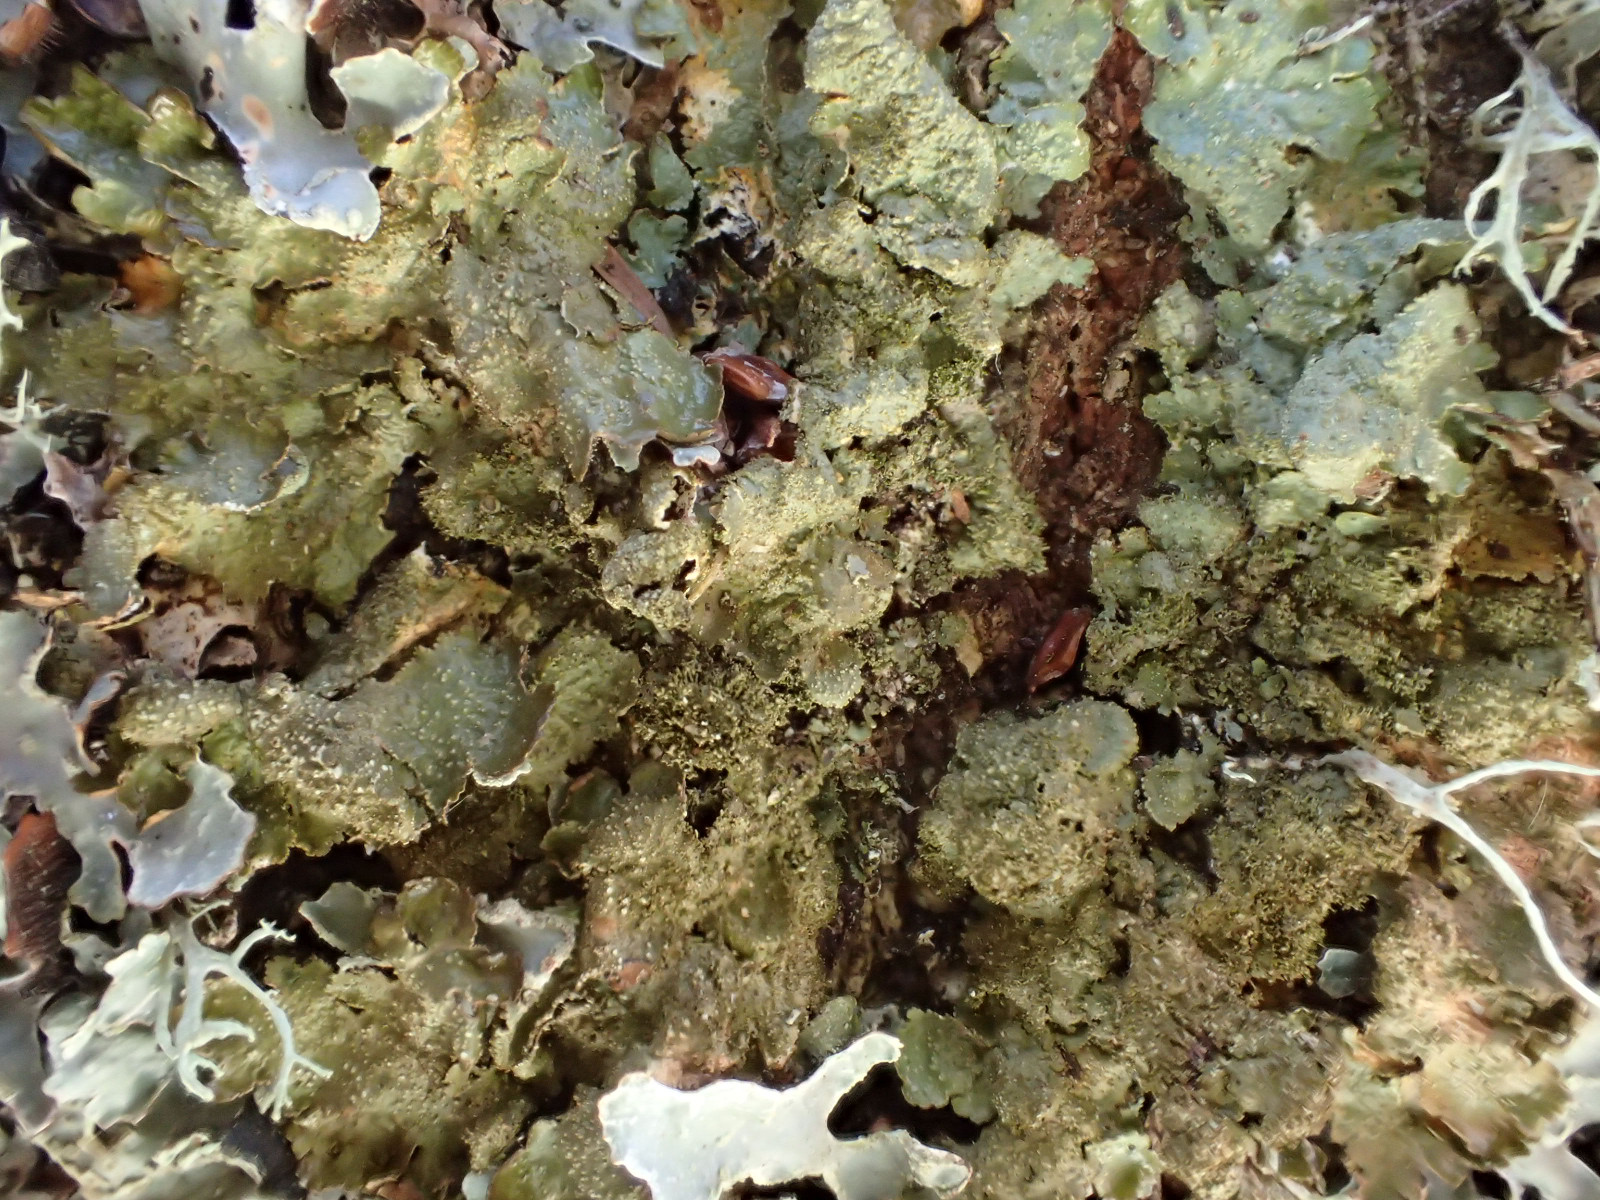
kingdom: Fungi
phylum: Ascomycota
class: Lecanoromycetes
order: Lecanorales
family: Parmeliaceae
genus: Melanelixia
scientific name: Melanelixia subaurifera
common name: guldpudret skållav
